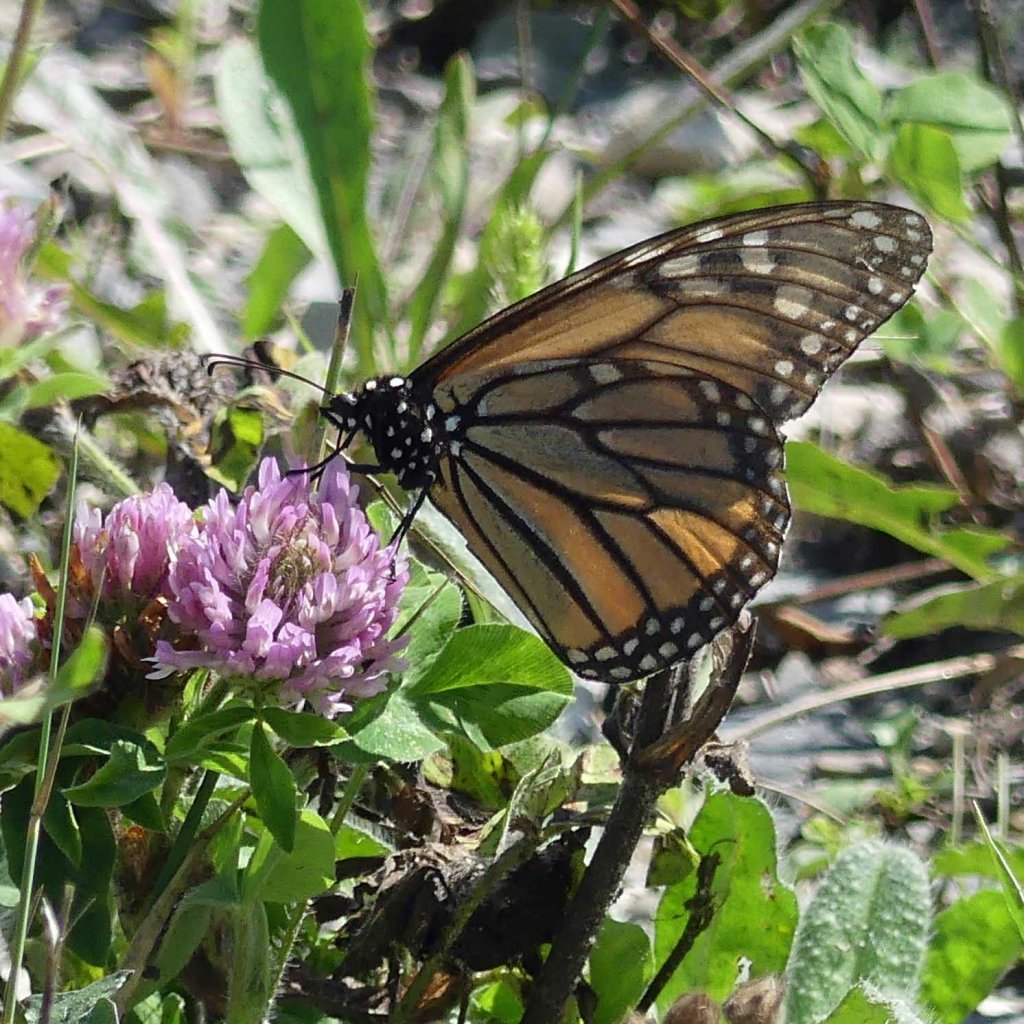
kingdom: Animalia
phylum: Arthropoda
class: Insecta
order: Lepidoptera
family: Nymphalidae
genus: Danaus
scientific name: Danaus plexippus
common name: Monarch
